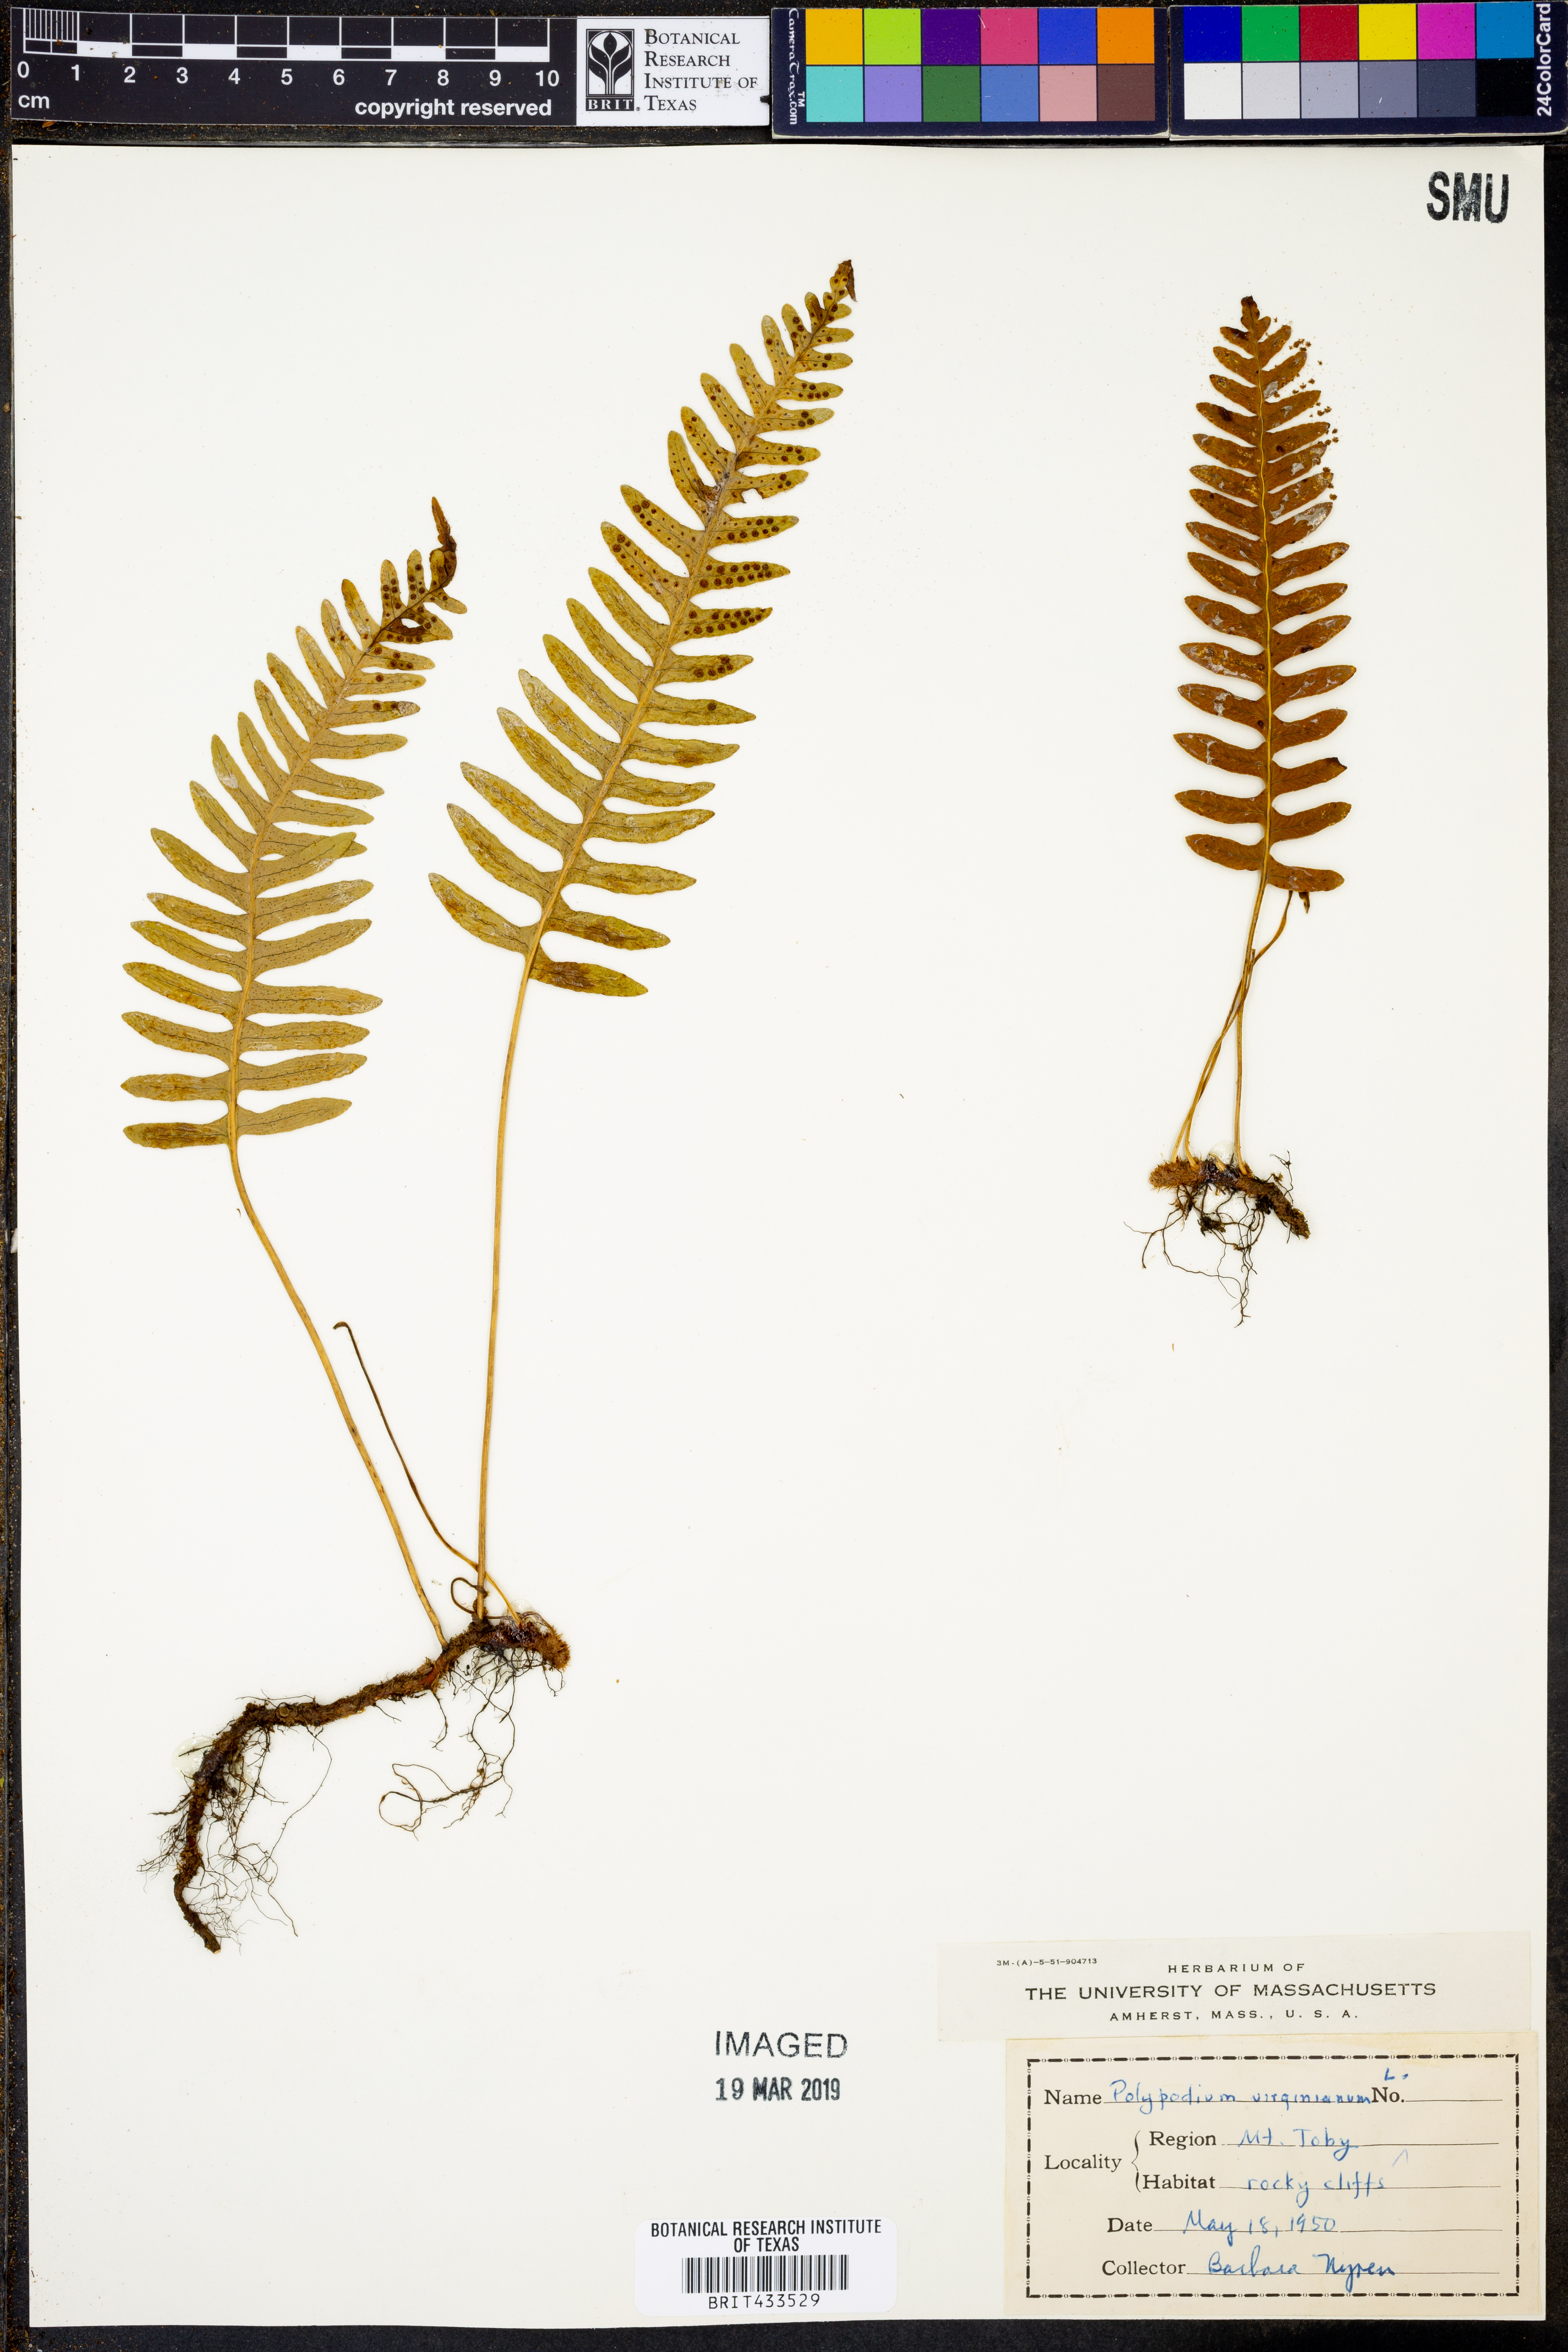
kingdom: Plantae
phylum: Tracheophyta
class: Polypodiopsida
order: Polypodiales
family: Polypodiaceae
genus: Polypodium
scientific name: Polypodium virginianum
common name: American wall fern
